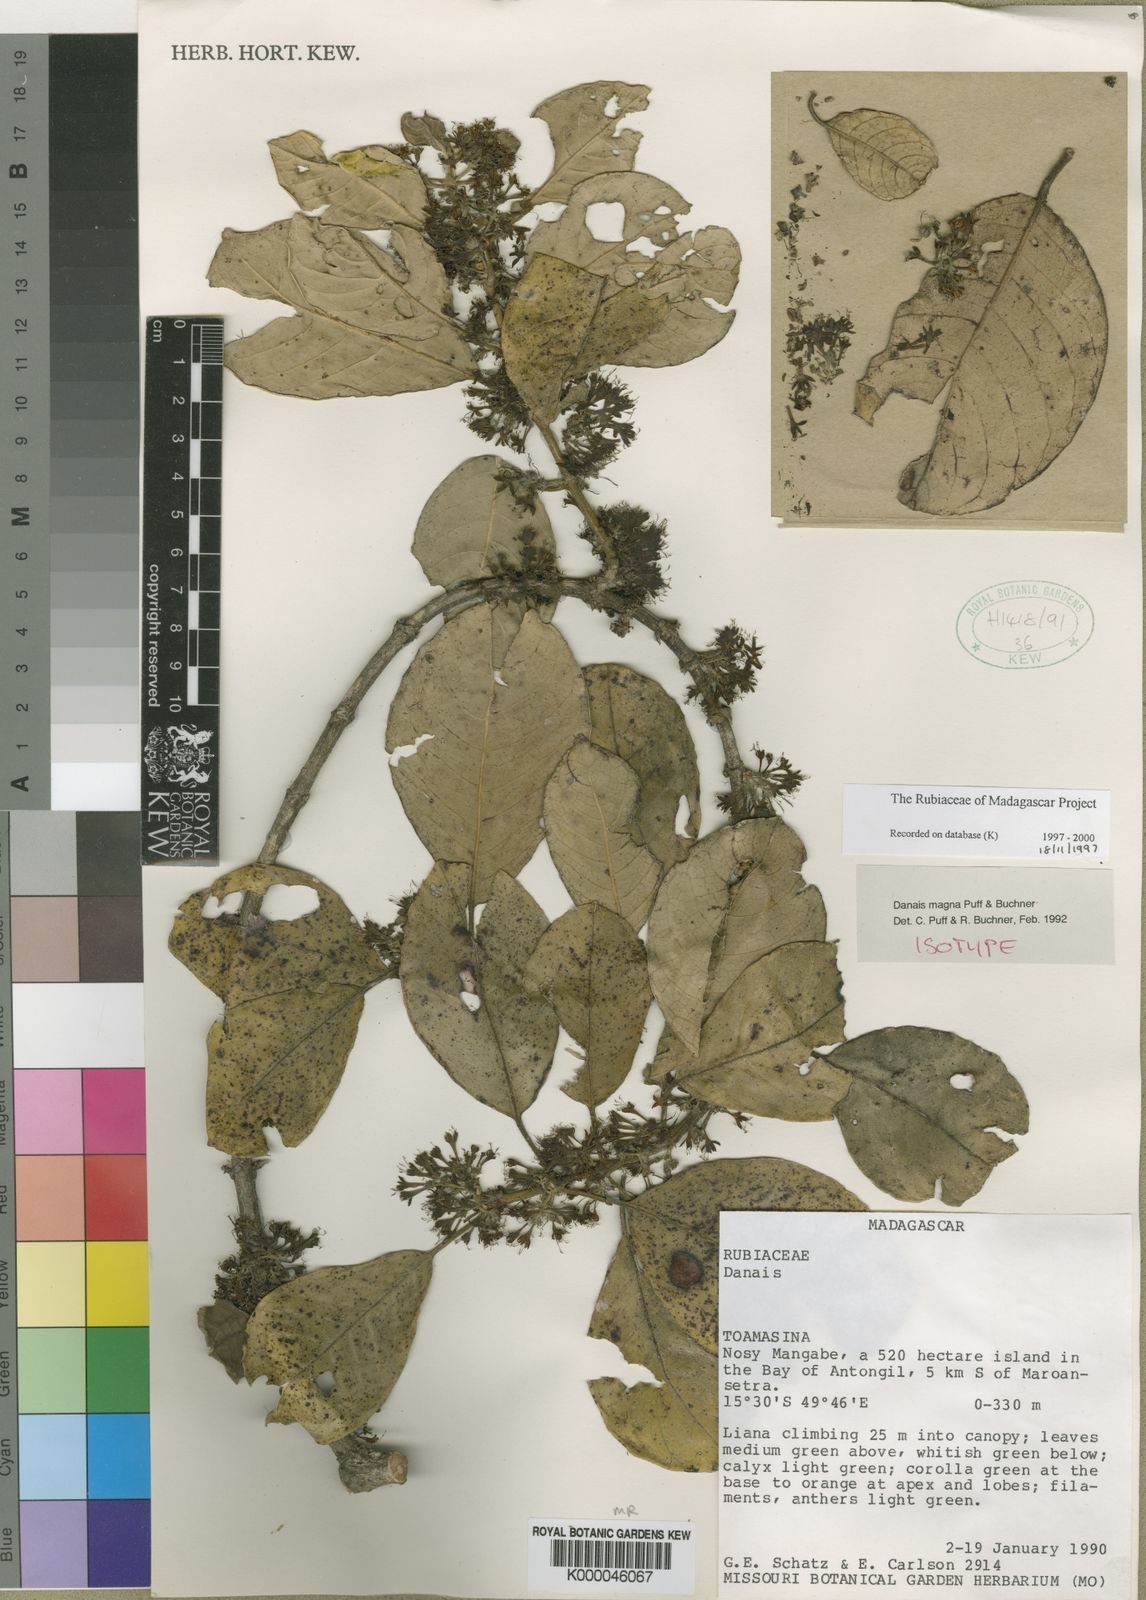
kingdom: Plantae
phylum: Tracheophyta
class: Magnoliopsida
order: Gentianales
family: Rubiaceae
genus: Danais
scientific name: Danais magna
